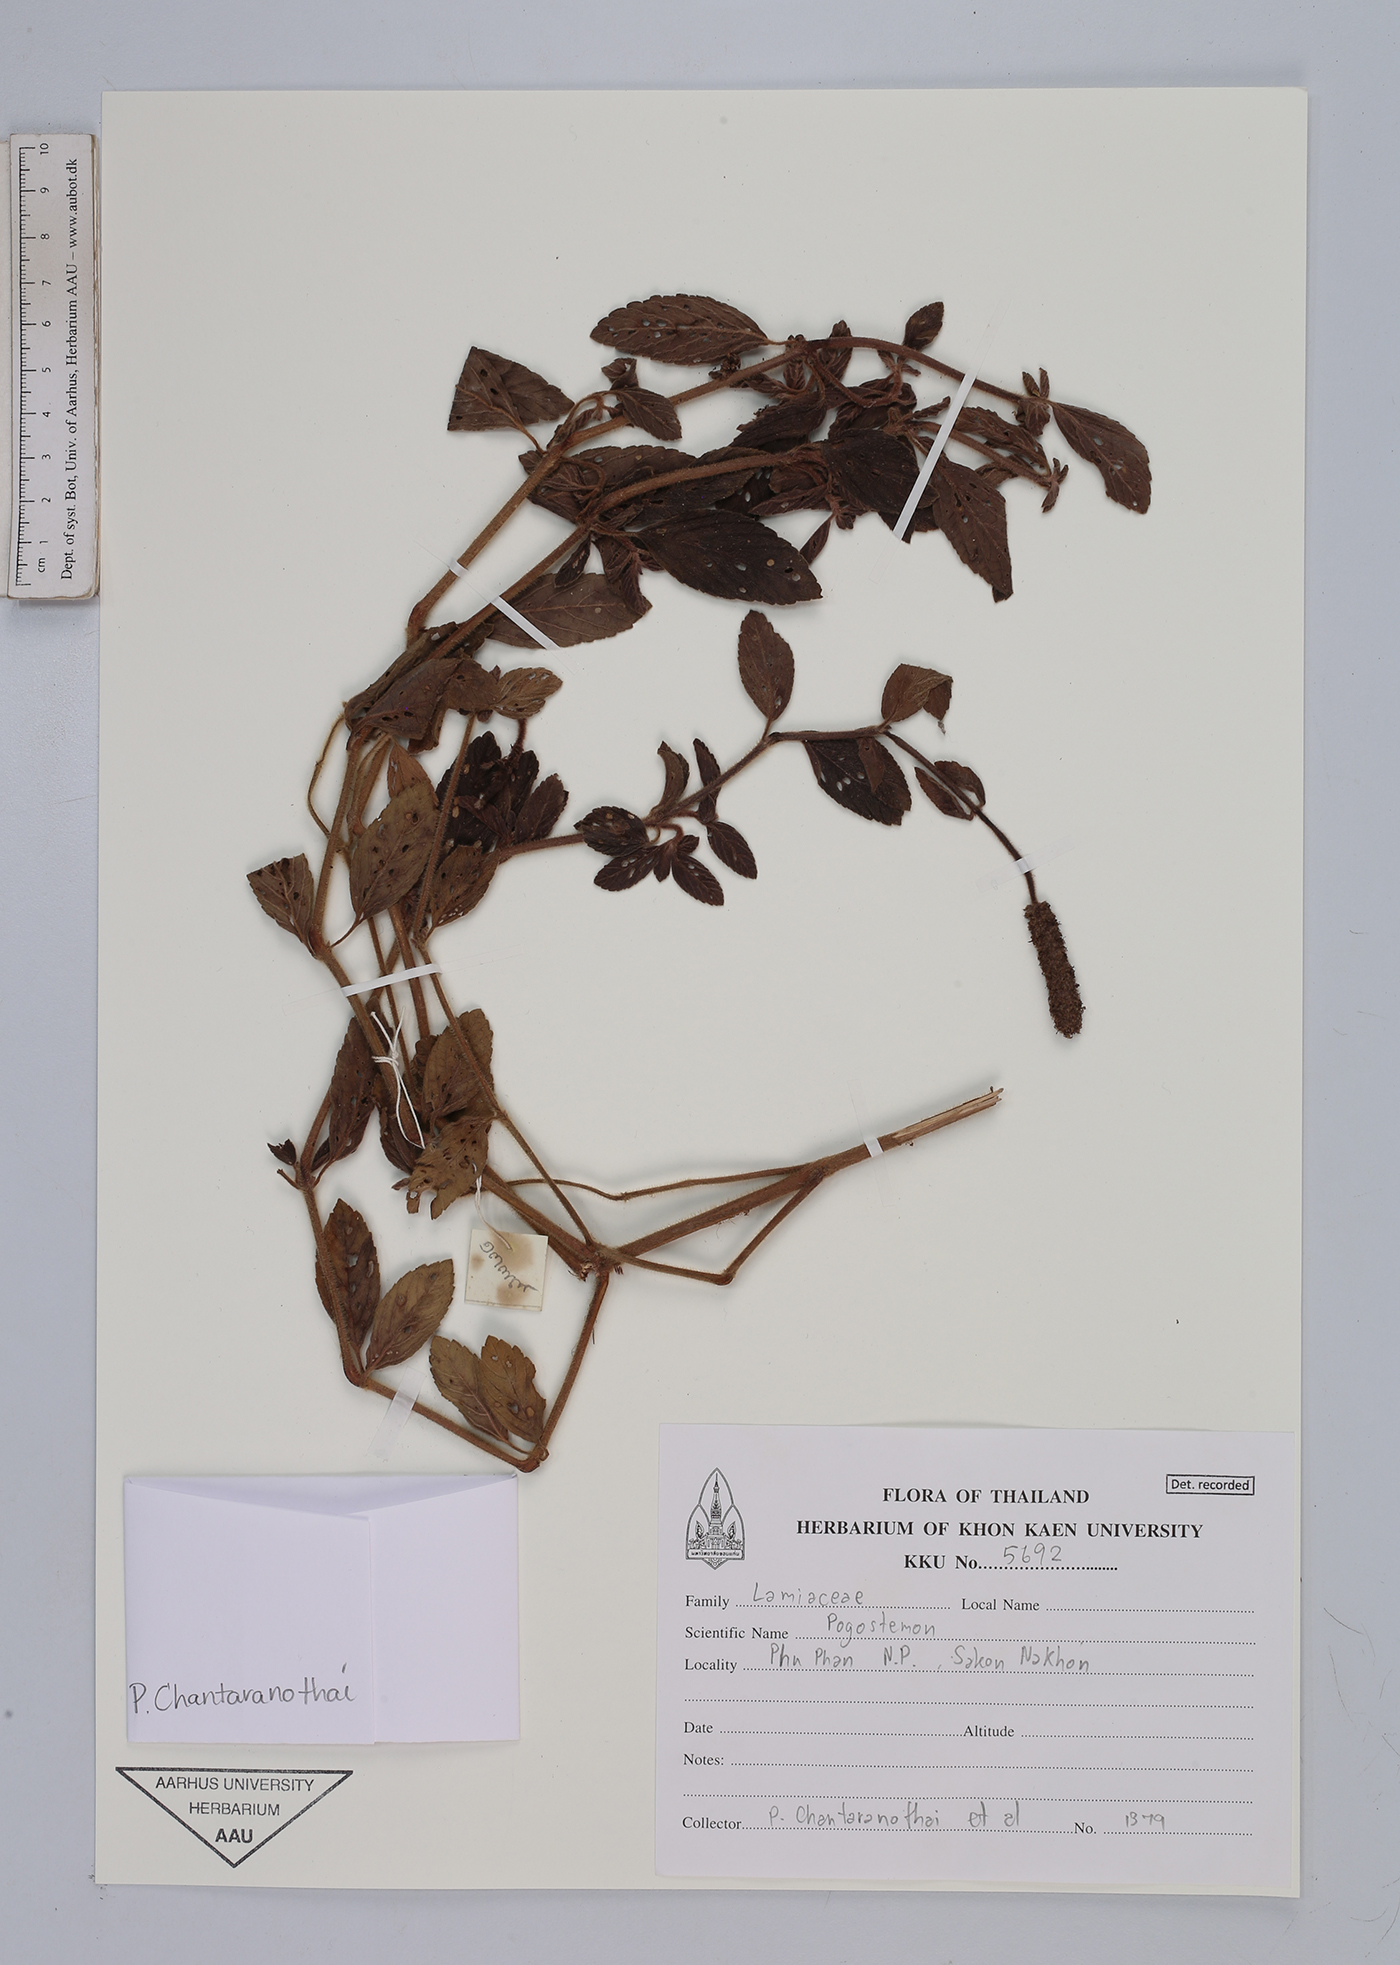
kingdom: Plantae
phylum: Tracheophyta
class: Magnoliopsida
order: Lamiales
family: Lamiaceae
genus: Pogostemon
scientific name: Pogostemon auricularius
